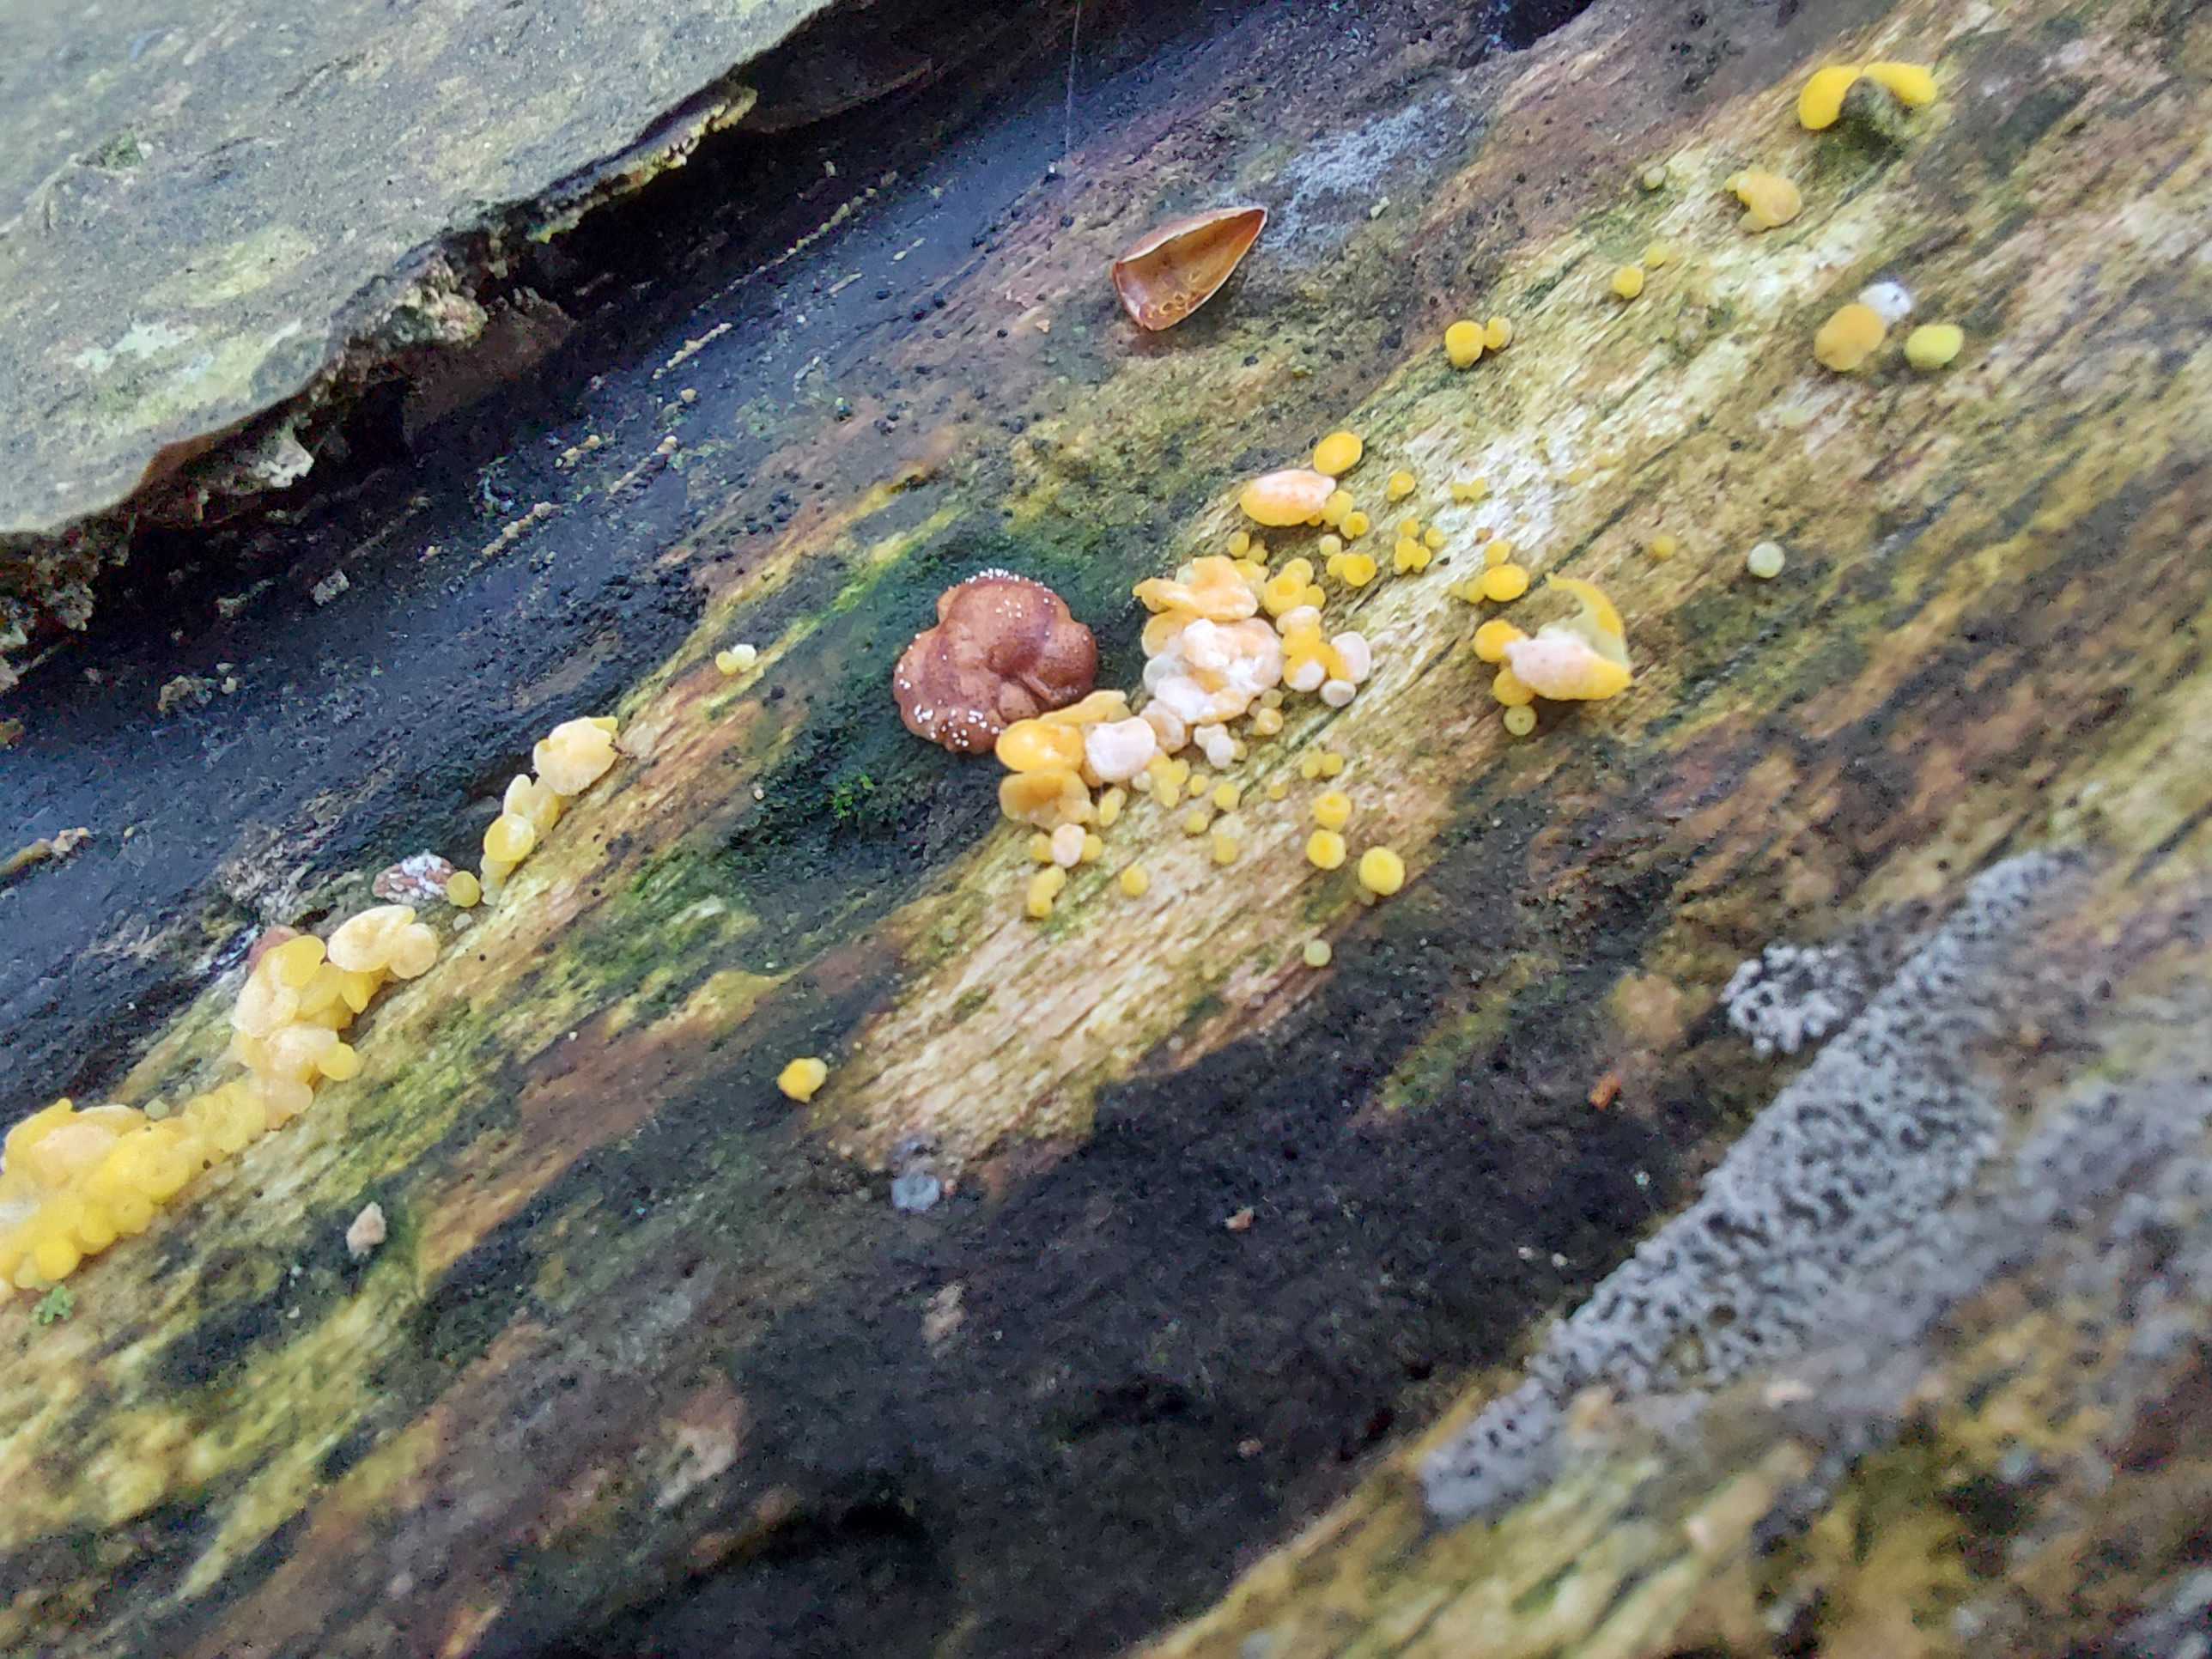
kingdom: Fungi
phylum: Ascomycota
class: Sordariomycetes
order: Hypocreales
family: Hypocreaceae
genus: Trichoderma
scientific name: Trichoderma europaeum
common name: rosabrun kødkerne
